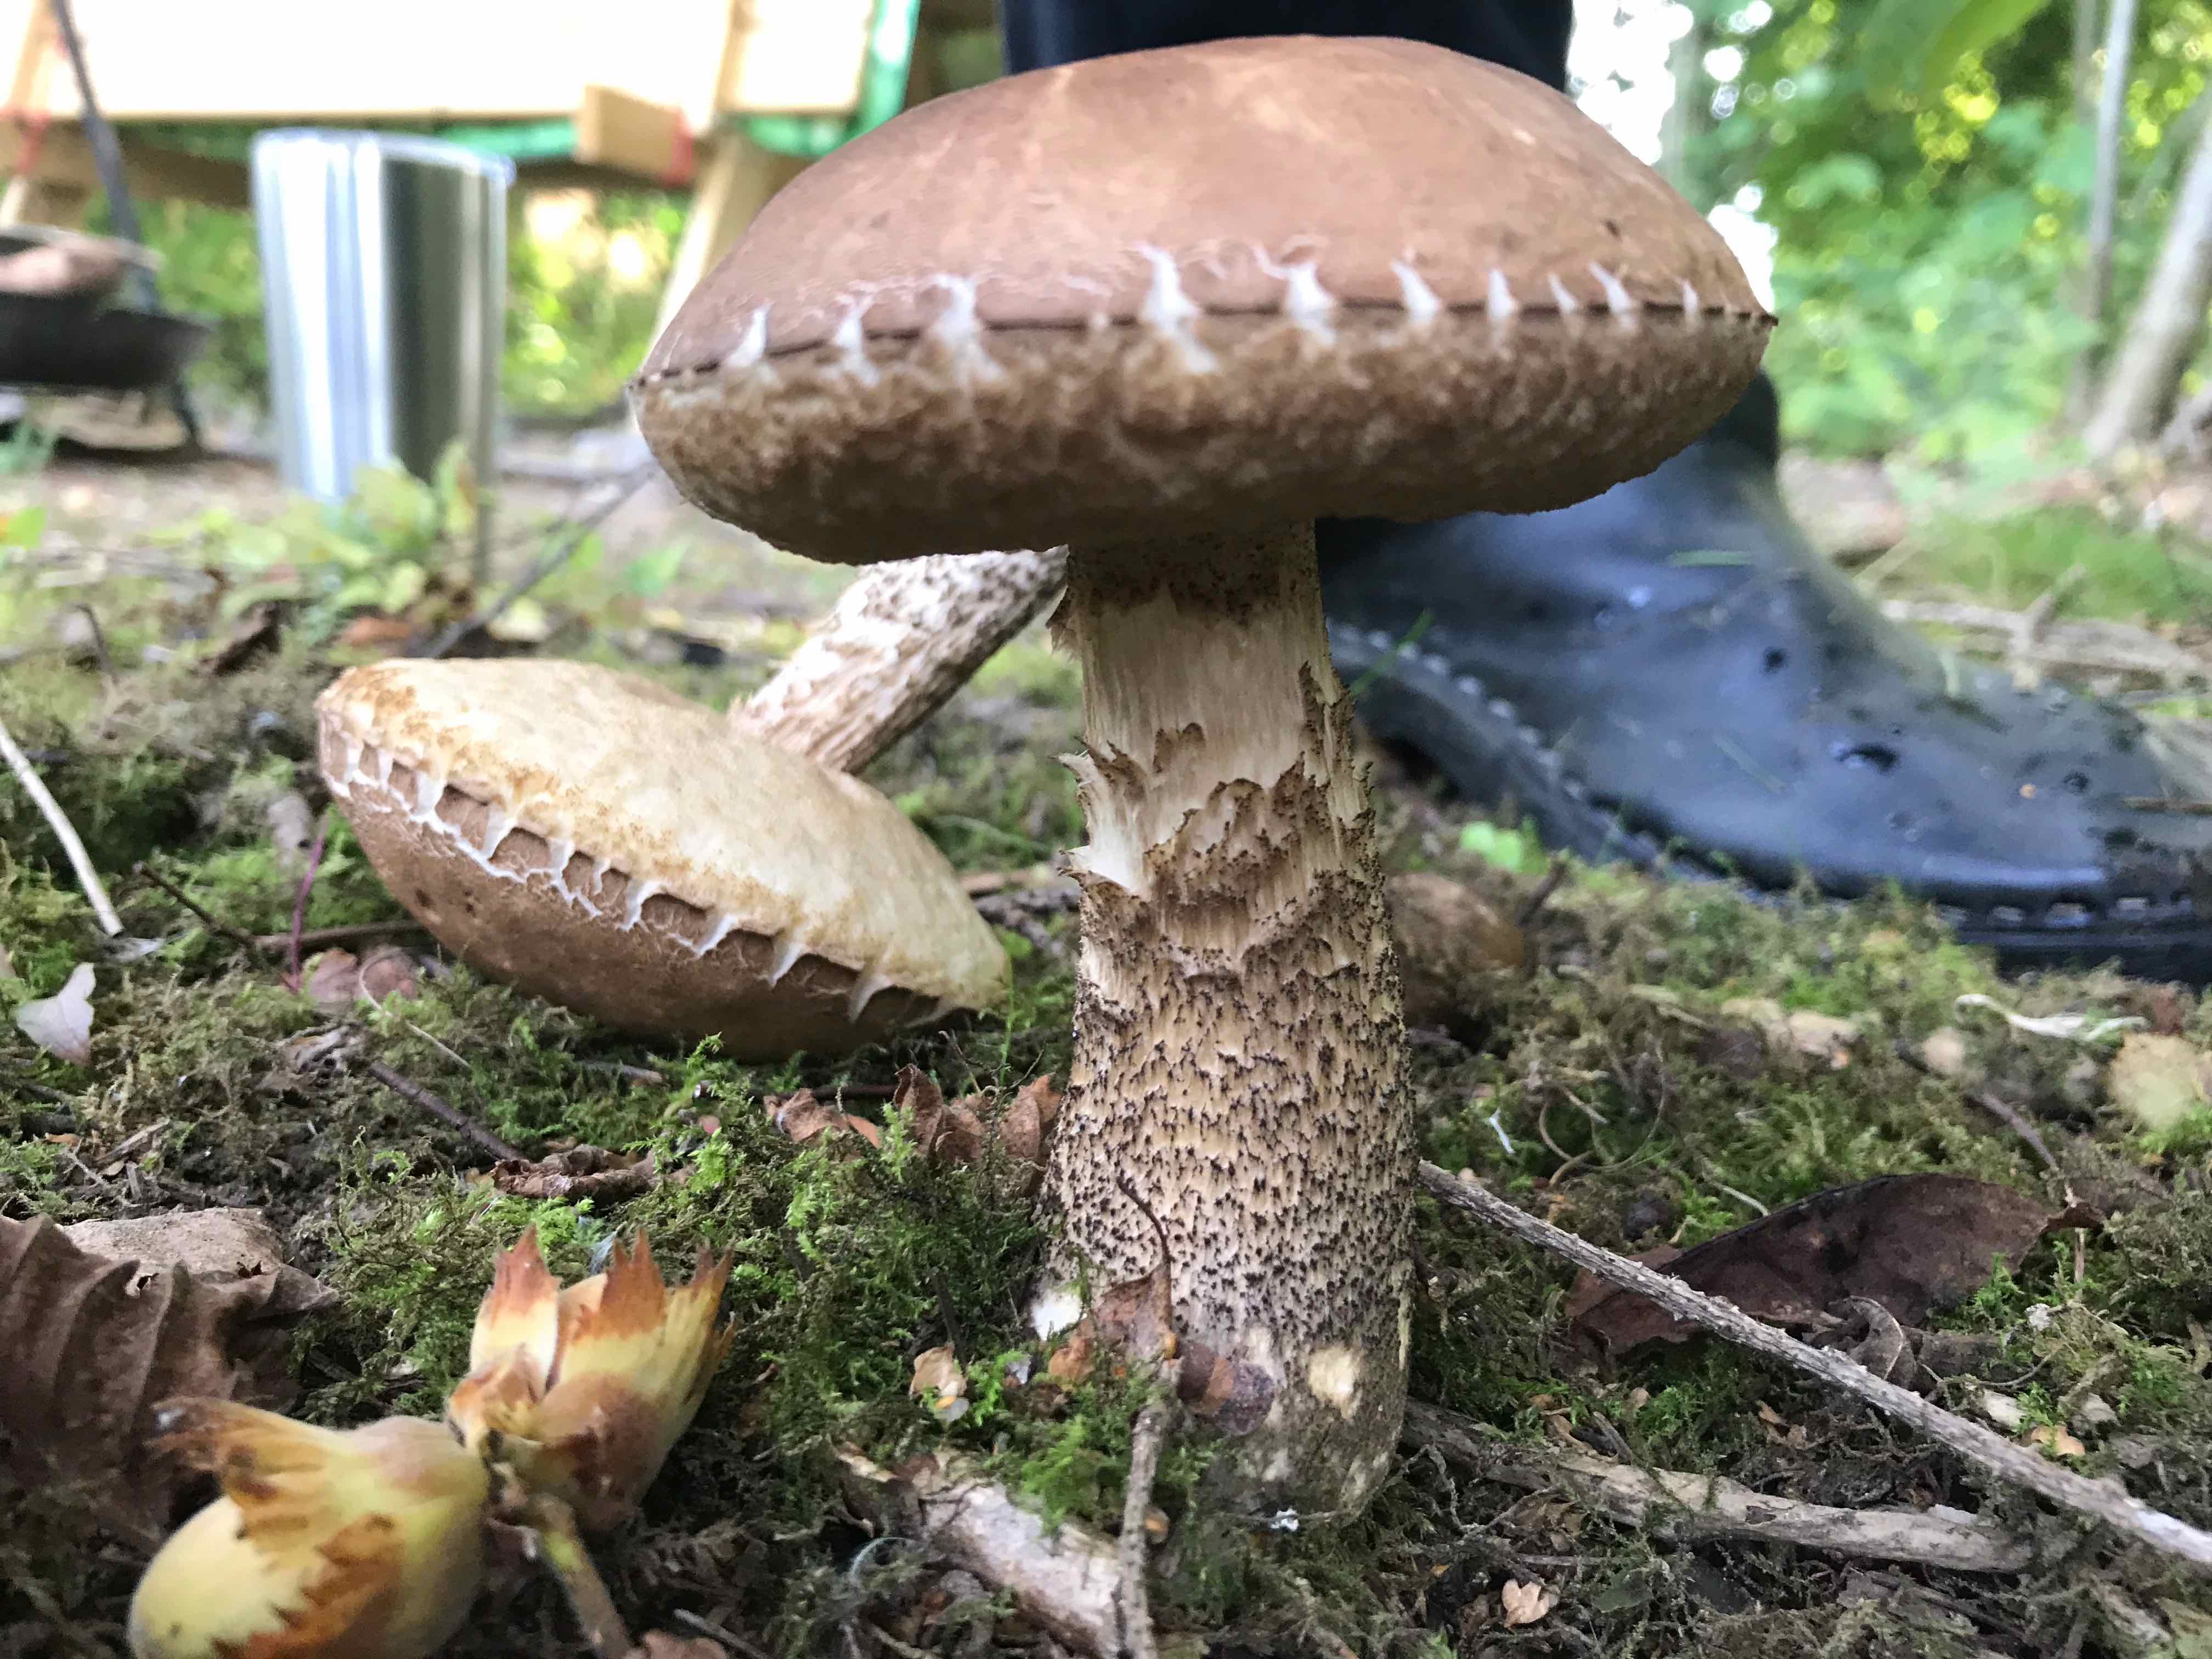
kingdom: Fungi
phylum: Basidiomycota
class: Agaricomycetes
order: Boletales
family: Boletaceae
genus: Leccinum
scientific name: Leccinum scabrum
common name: brun skælrørhat
